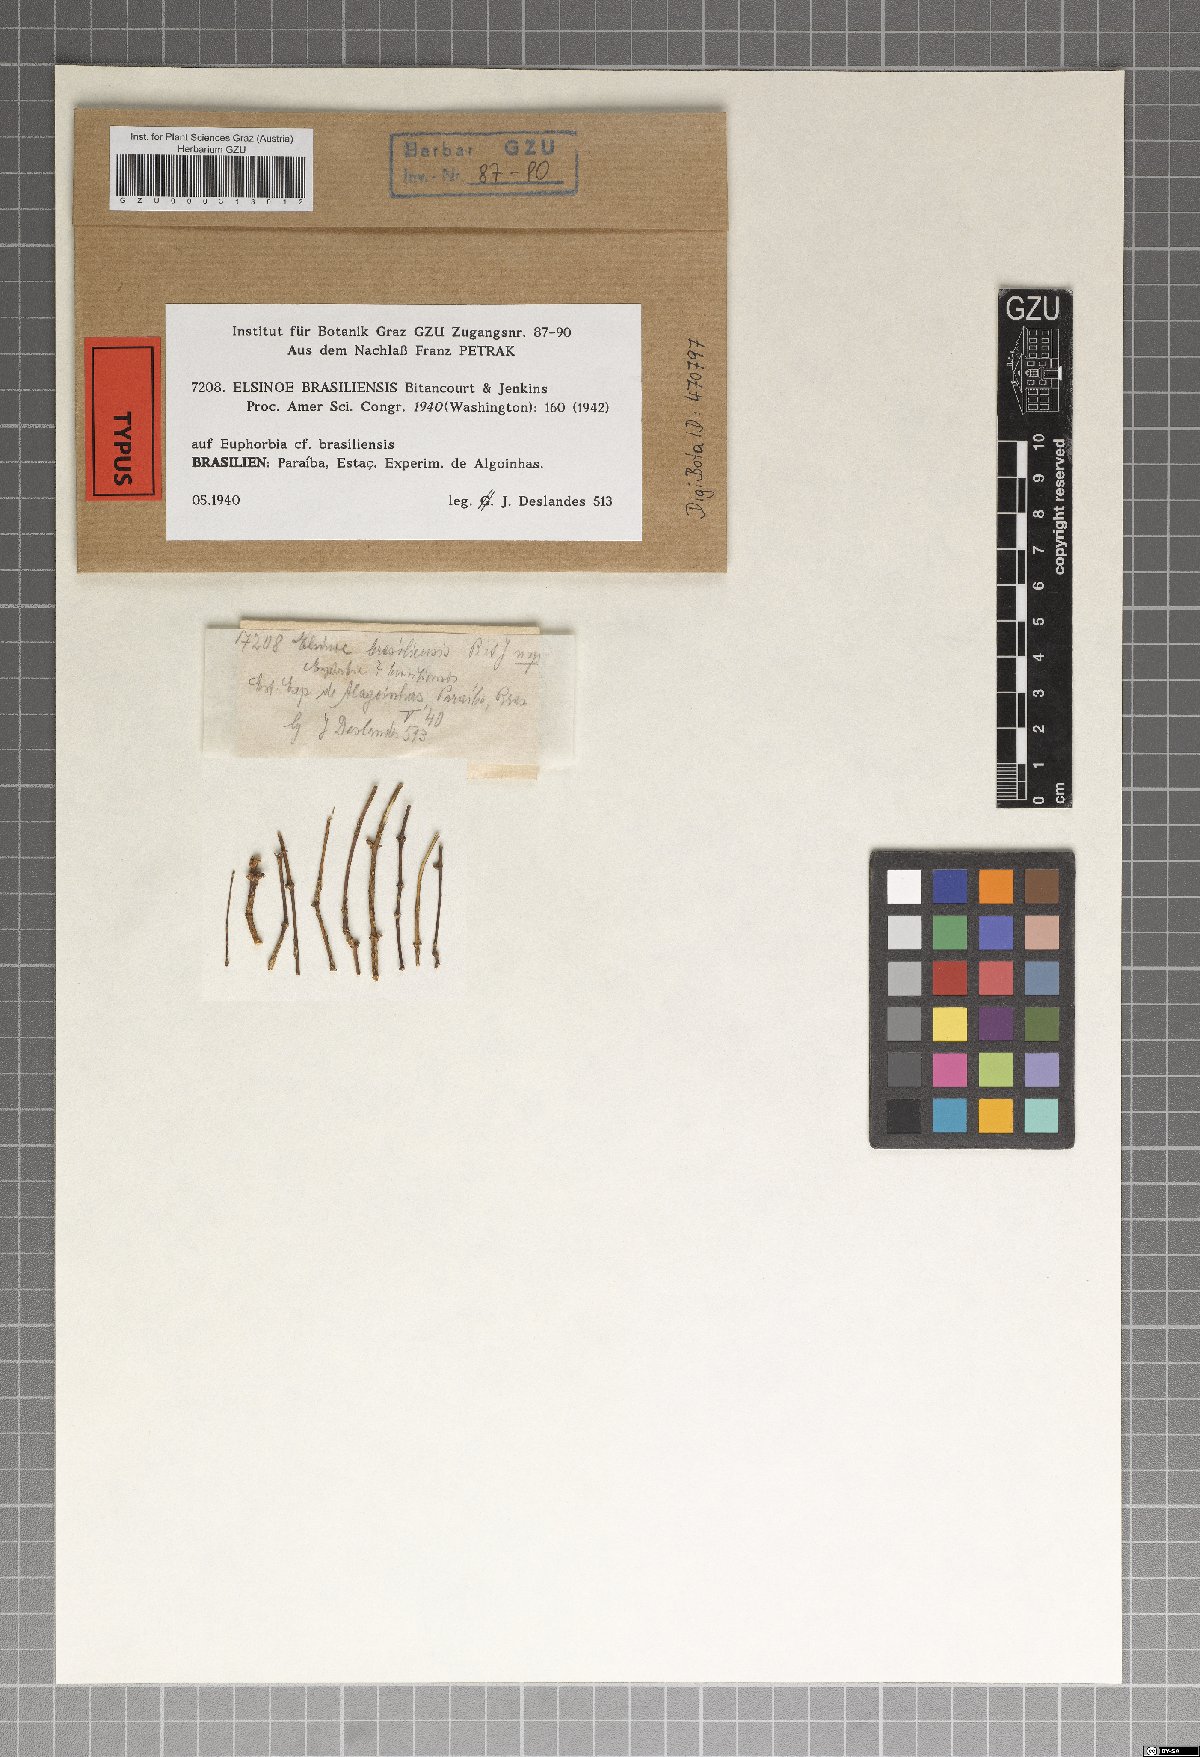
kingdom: Fungi
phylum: Ascomycota
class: Dothideomycetes
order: Myriangiales
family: Elsinoaceae
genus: Elsinoe
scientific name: Elsinoe brasiliensis
